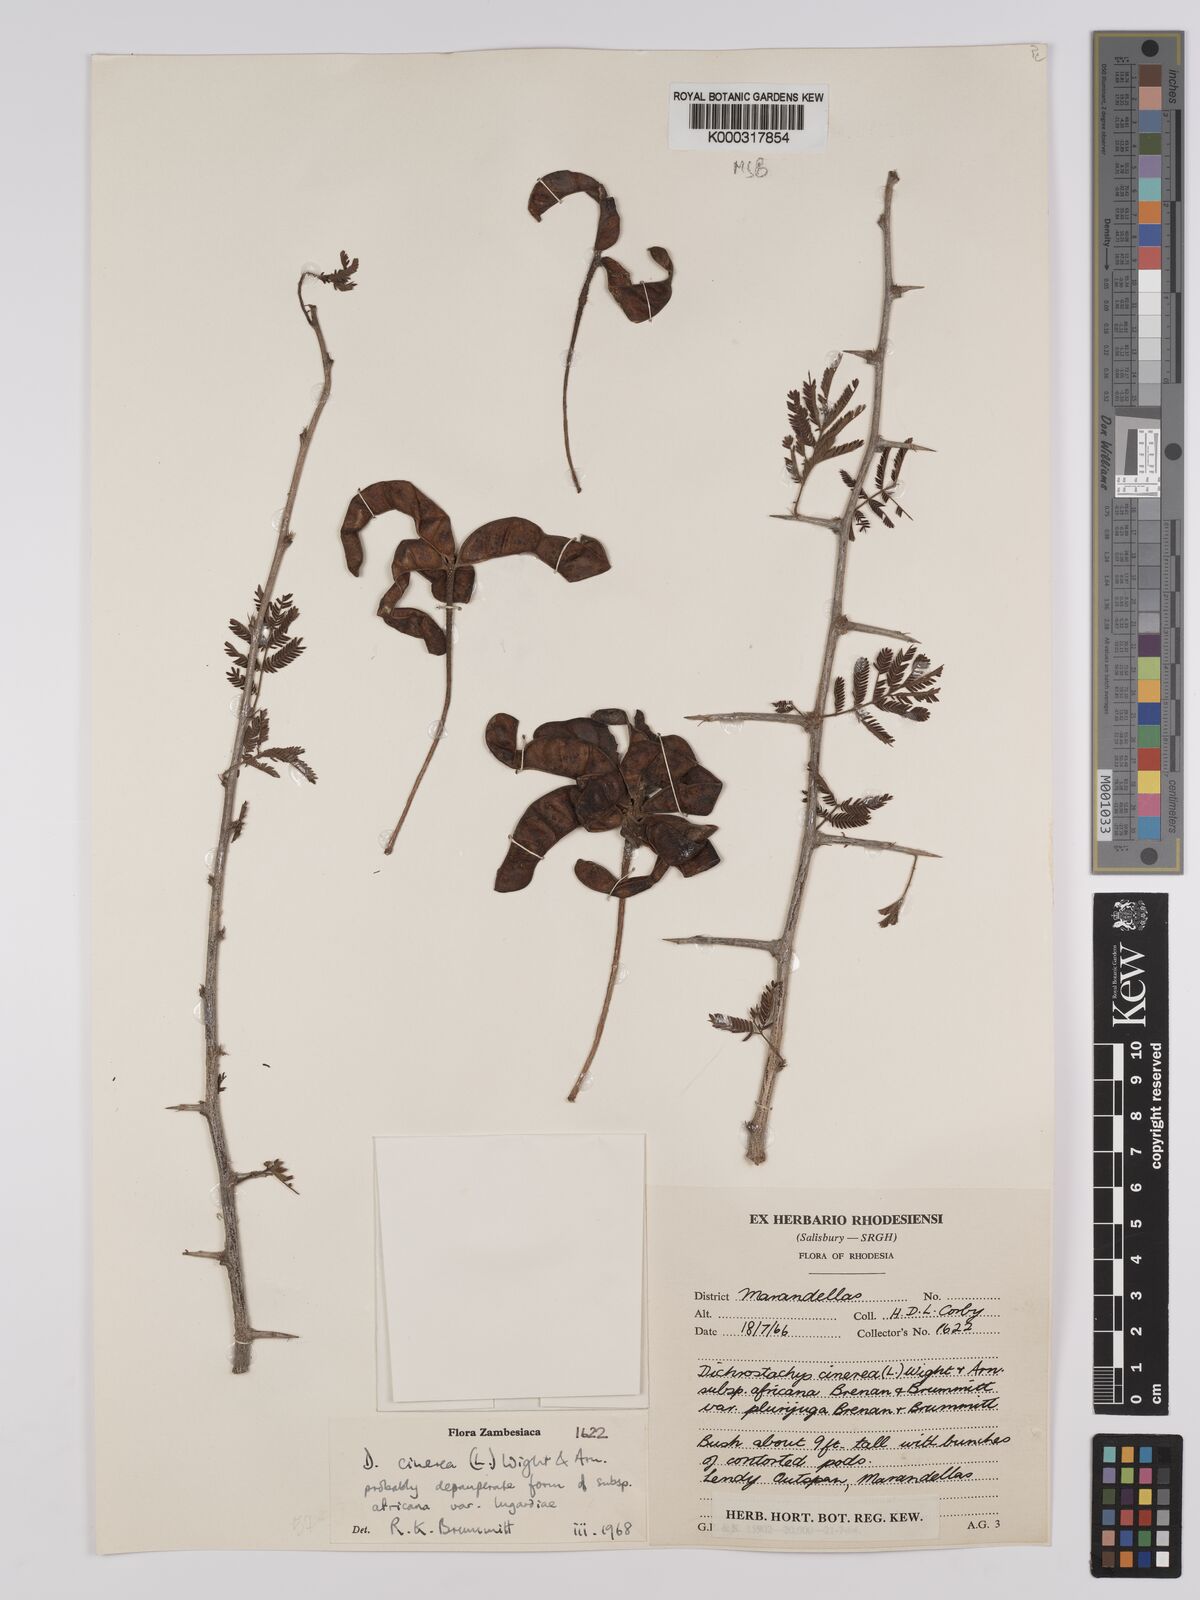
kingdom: Plantae
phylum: Tracheophyta
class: Magnoliopsida
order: Fabales
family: Fabaceae
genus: Dichrostachys
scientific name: Dichrostachys cinerea
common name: Sicklebush
